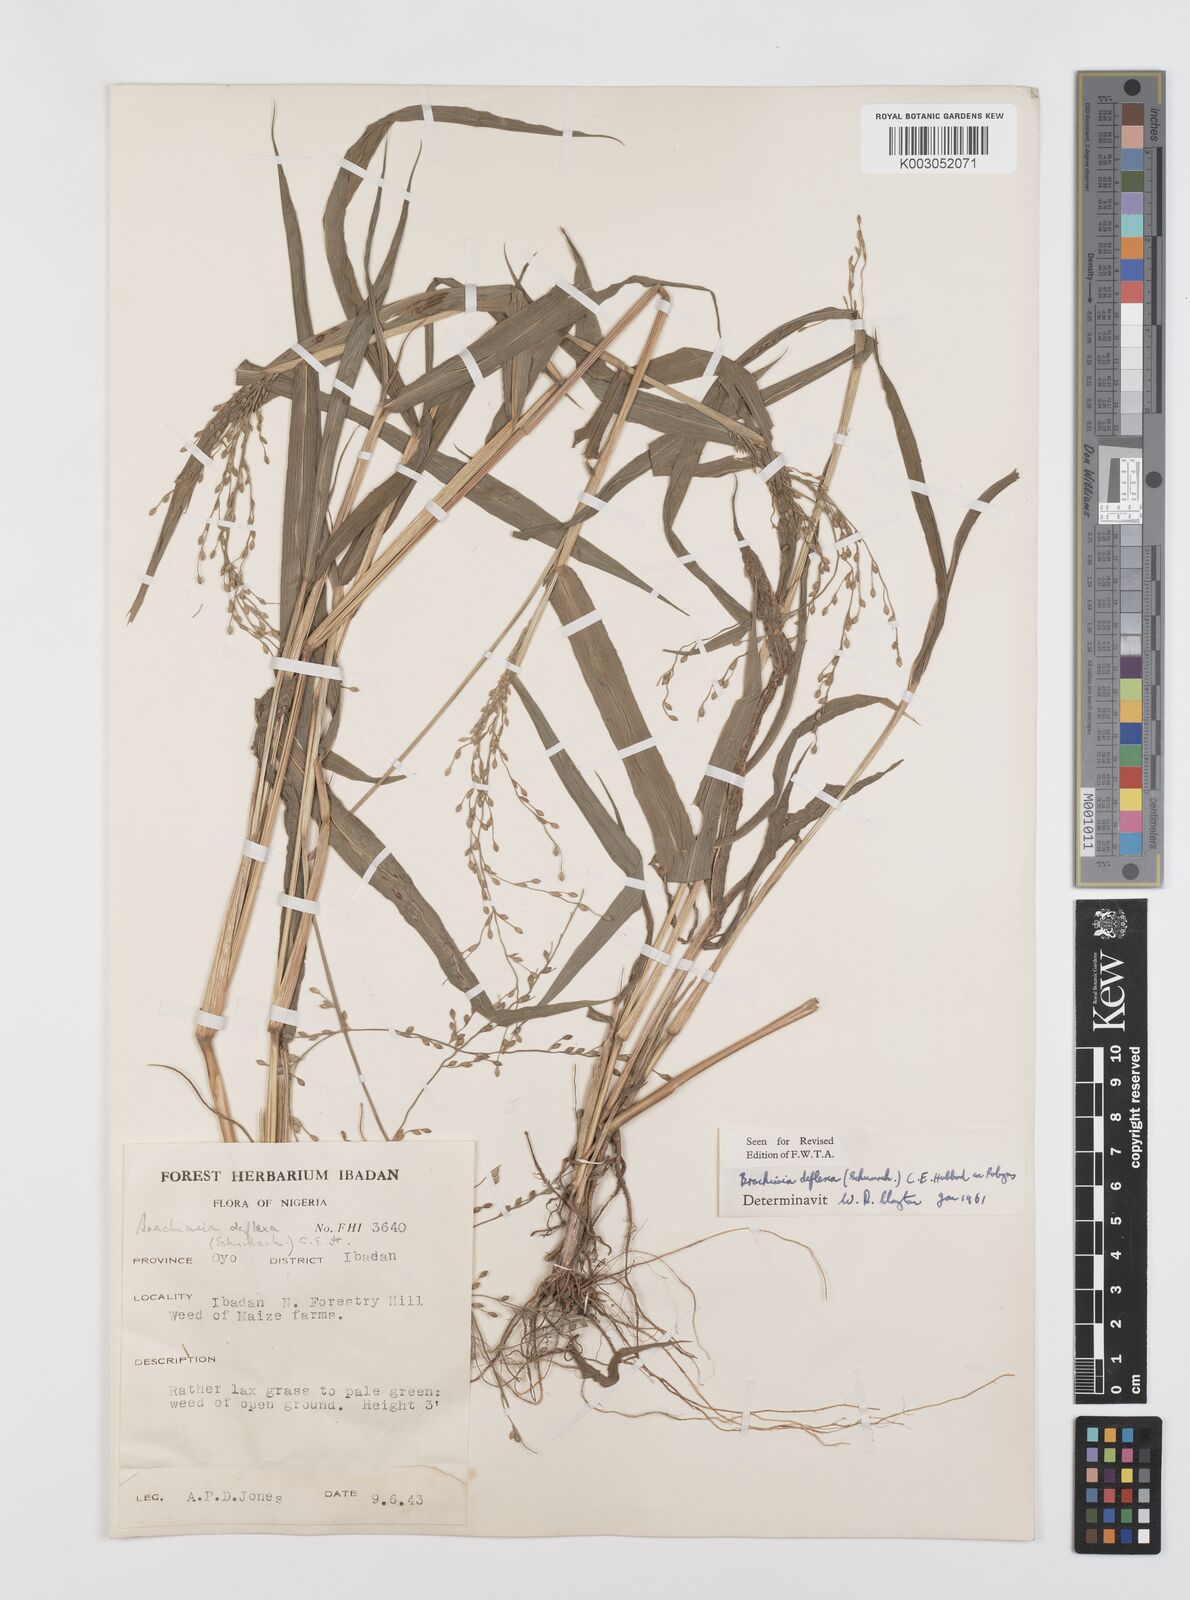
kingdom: Plantae
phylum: Tracheophyta
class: Liliopsida
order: Poales
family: Poaceae
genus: Urochloa
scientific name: Urochloa deflexa
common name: Guinea millet
